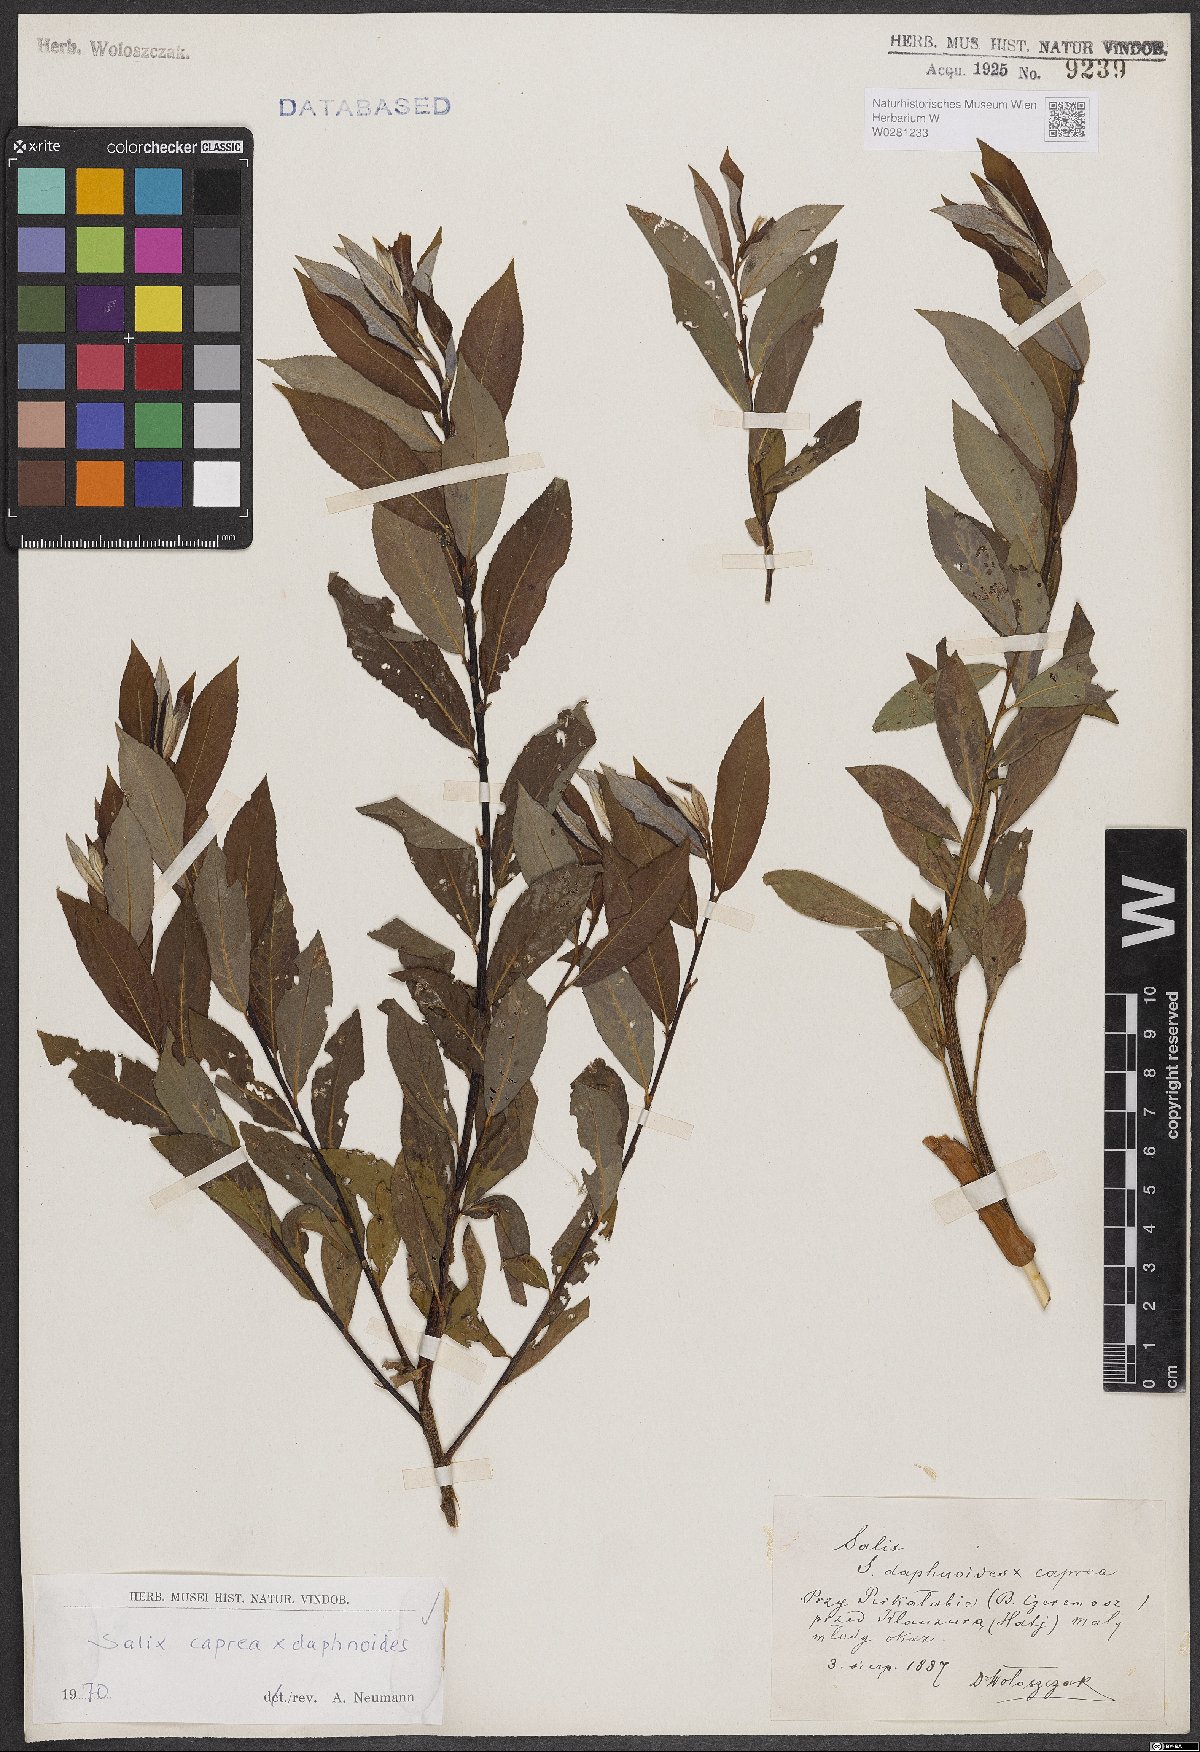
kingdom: Plantae
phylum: Tracheophyta
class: Magnoliopsida
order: Malpighiales
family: Salicaceae
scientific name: Salicaceae
